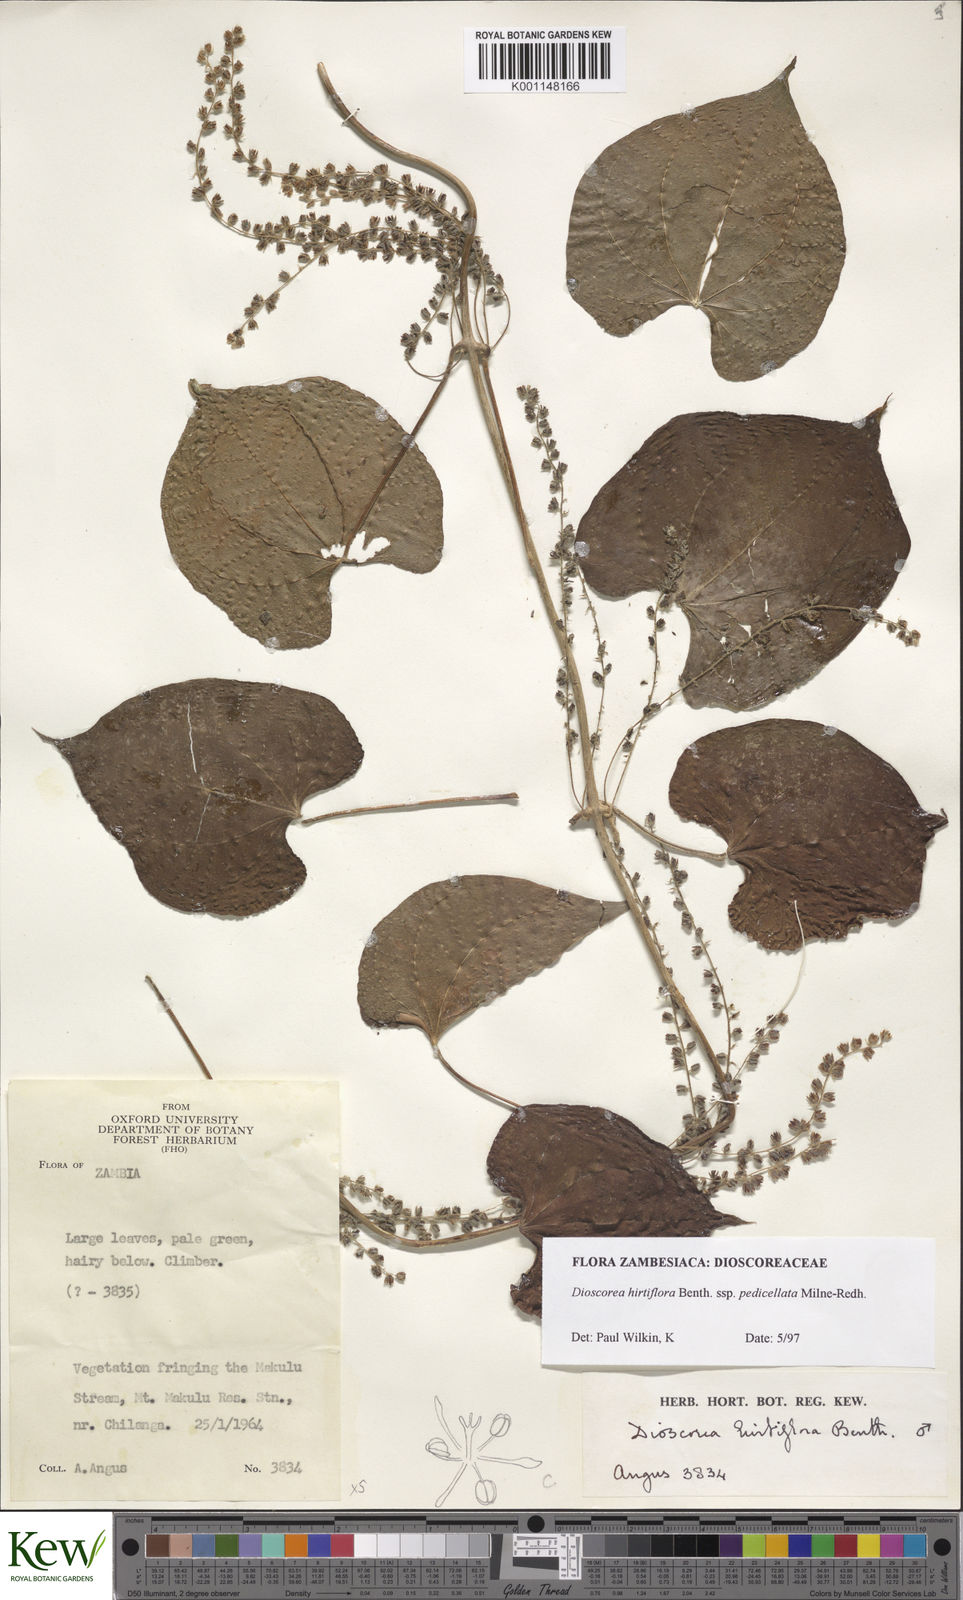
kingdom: Plantae
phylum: Tracheophyta
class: Liliopsida
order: Dioscoreales
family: Dioscoreaceae
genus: Dioscorea
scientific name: Dioscorea hirtiflora
